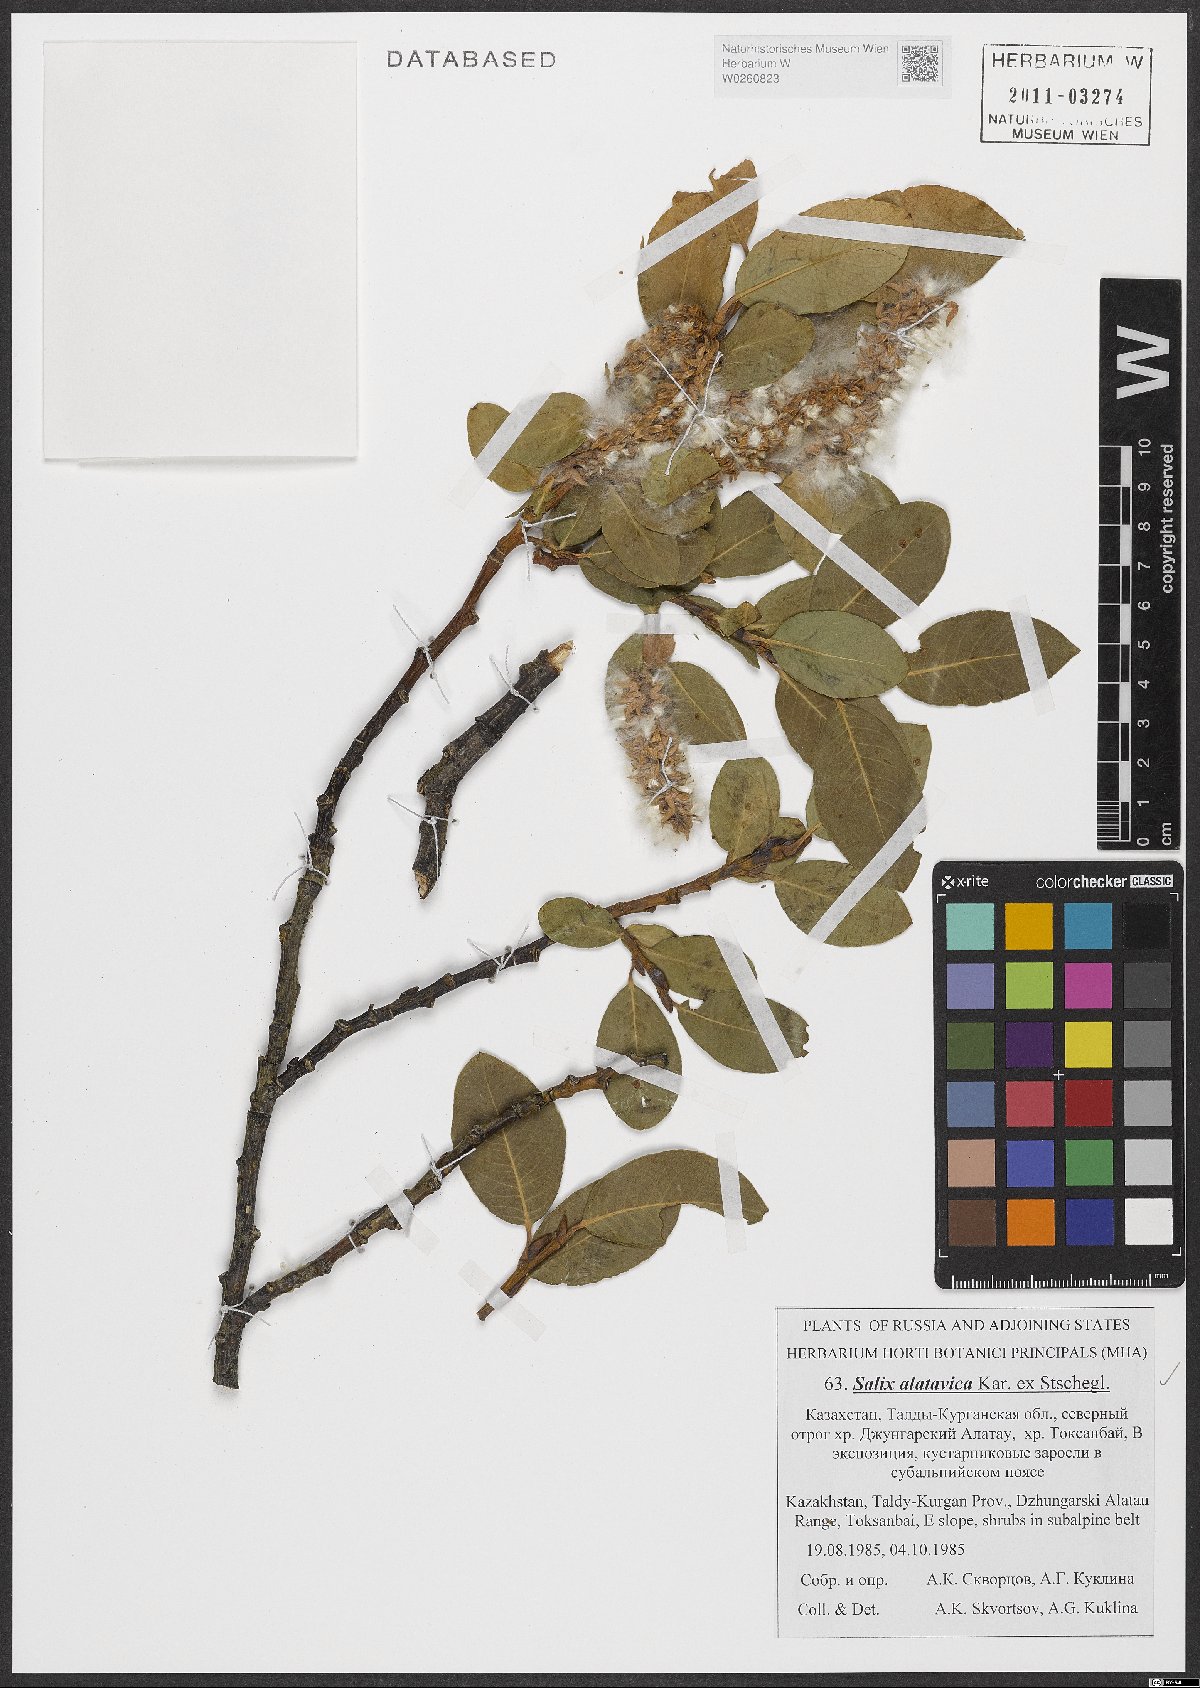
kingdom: Plantae
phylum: Tracheophyta
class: Magnoliopsida
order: Malpighiales
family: Salicaceae
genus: Salix
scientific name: Salix alatavica
